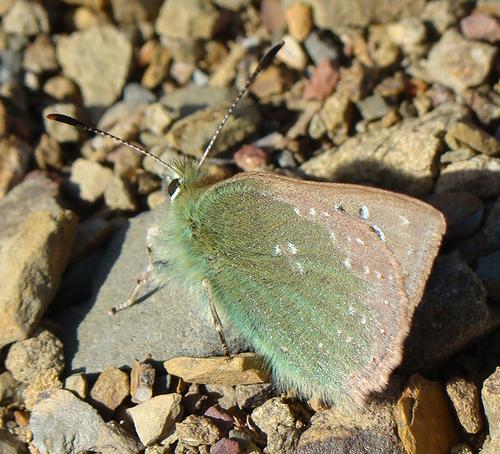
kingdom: Animalia
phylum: Arthropoda
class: Insecta
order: Lepidoptera
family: Lycaenidae
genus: Tomares
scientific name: Tomares ballus
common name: Provence hairstreak
